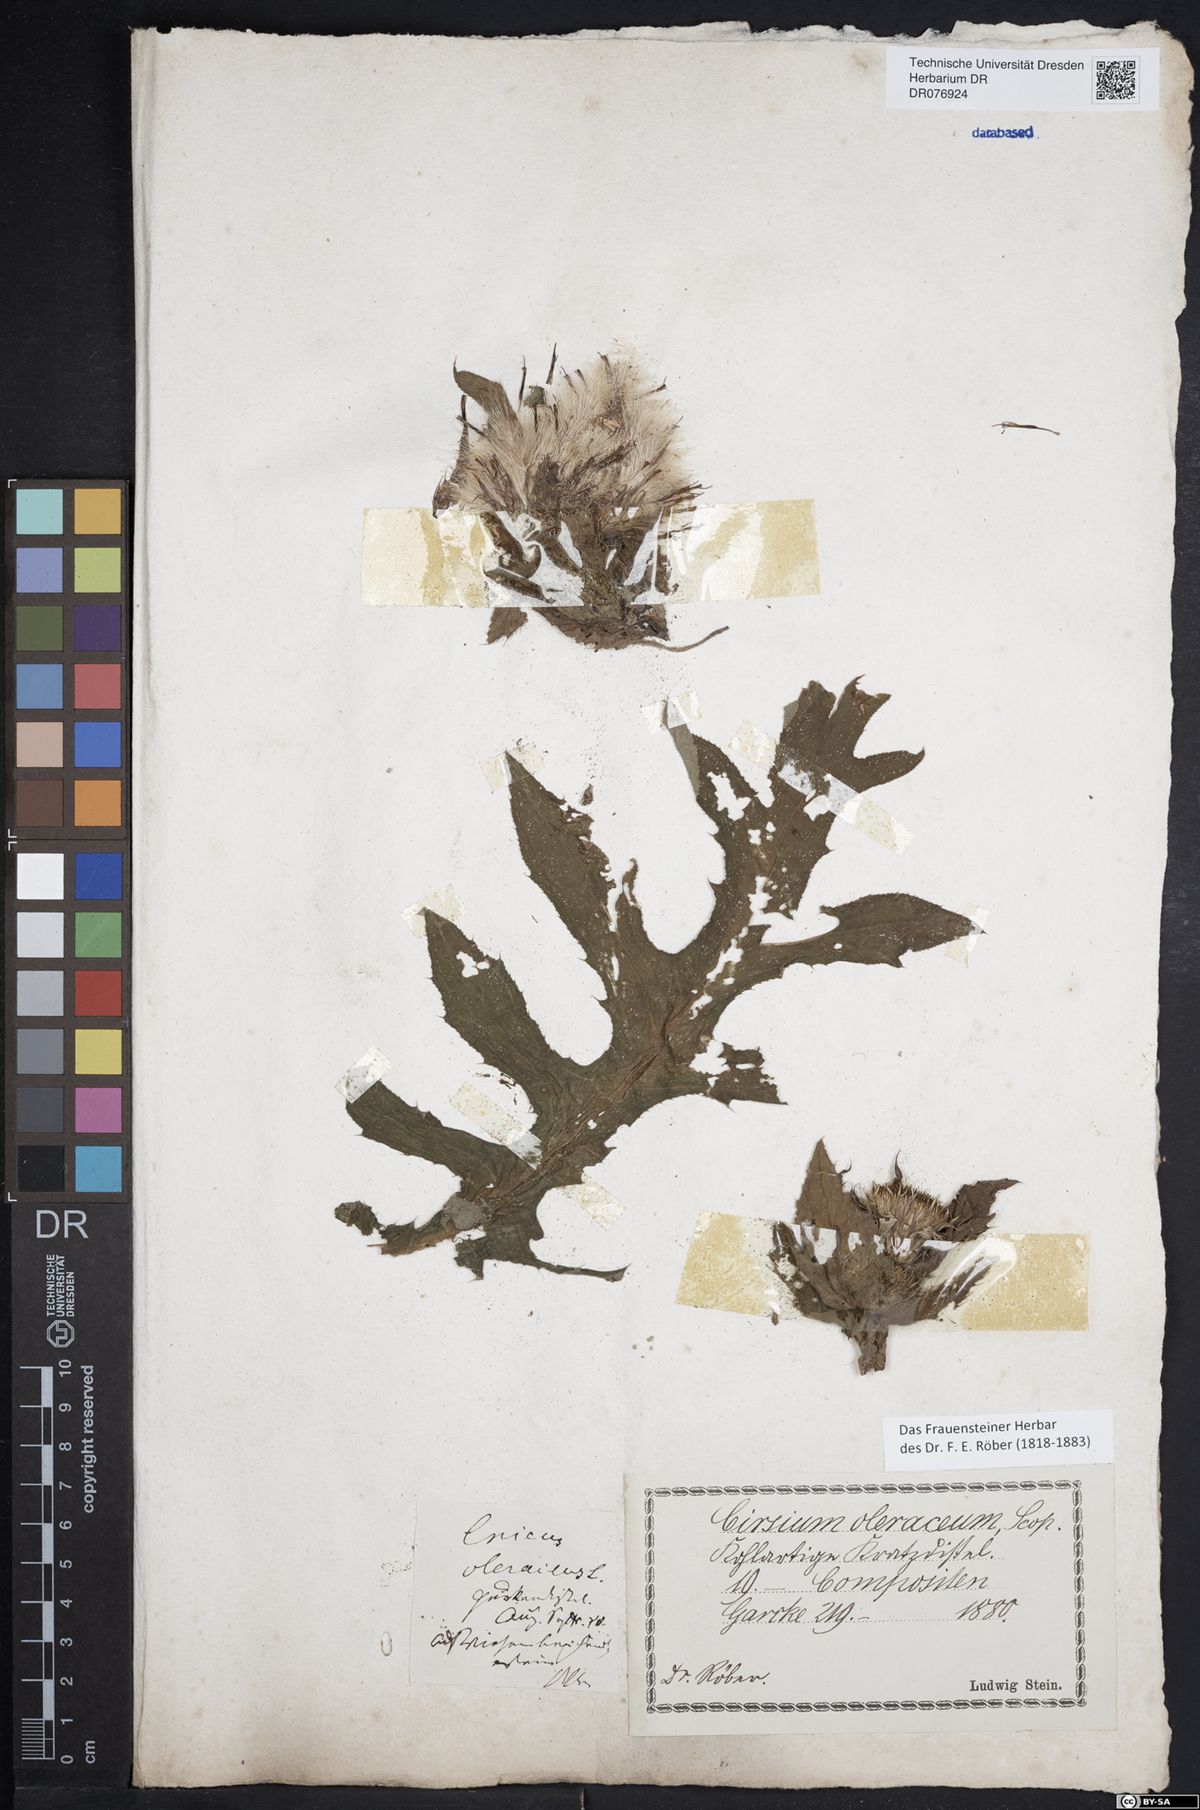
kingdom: Plantae
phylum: Tracheophyta
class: Magnoliopsida
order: Asterales
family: Asteraceae
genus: Cirsium
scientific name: Cirsium oleraceum
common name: Cabbage thistle
